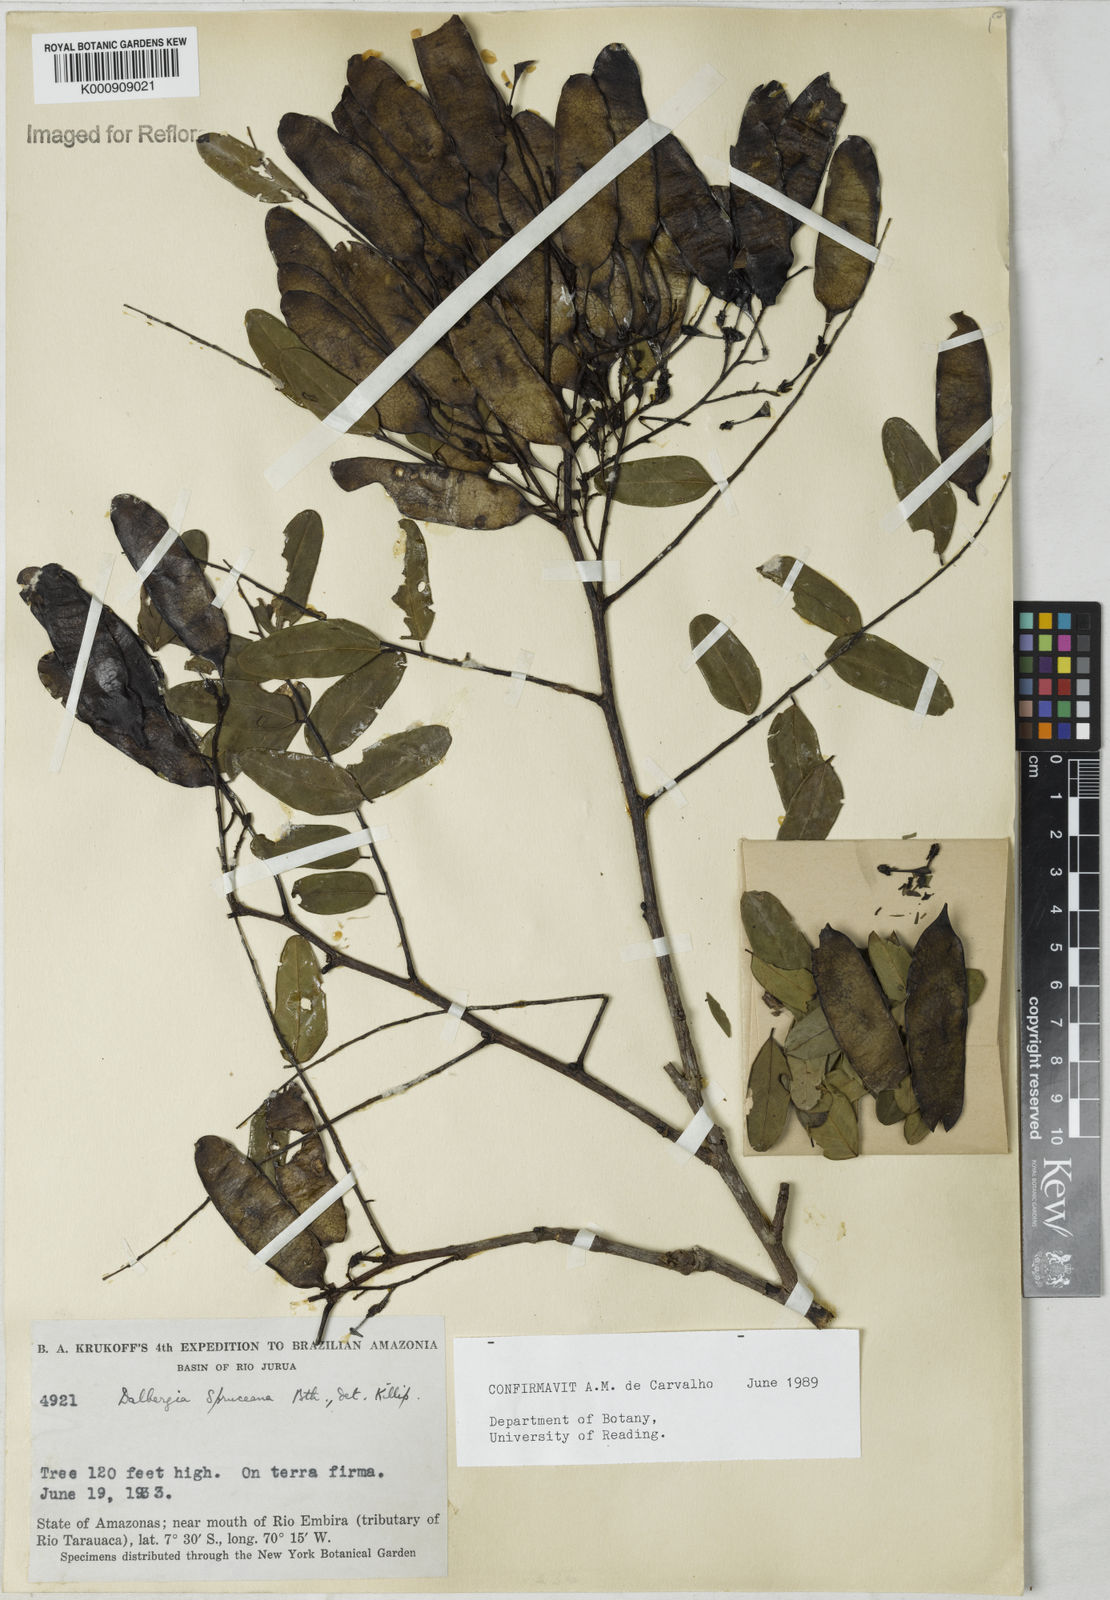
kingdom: Plantae
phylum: Tracheophyta
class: Magnoliopsida
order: Fabales
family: Fabaceae
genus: Dalbergia
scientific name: Dalbergia spruceana
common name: Amazon rosewood
